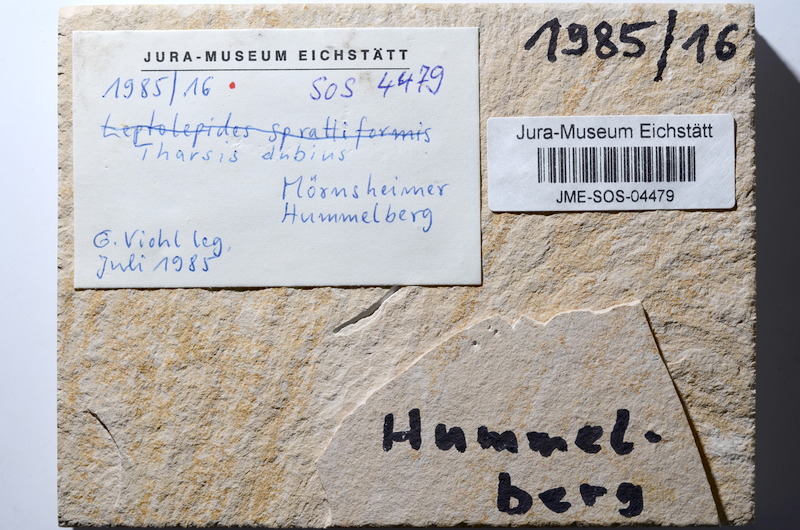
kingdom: Animalia
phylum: Chordata
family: Ascalaboidae
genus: Tharsis
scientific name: Tharsis dubius
